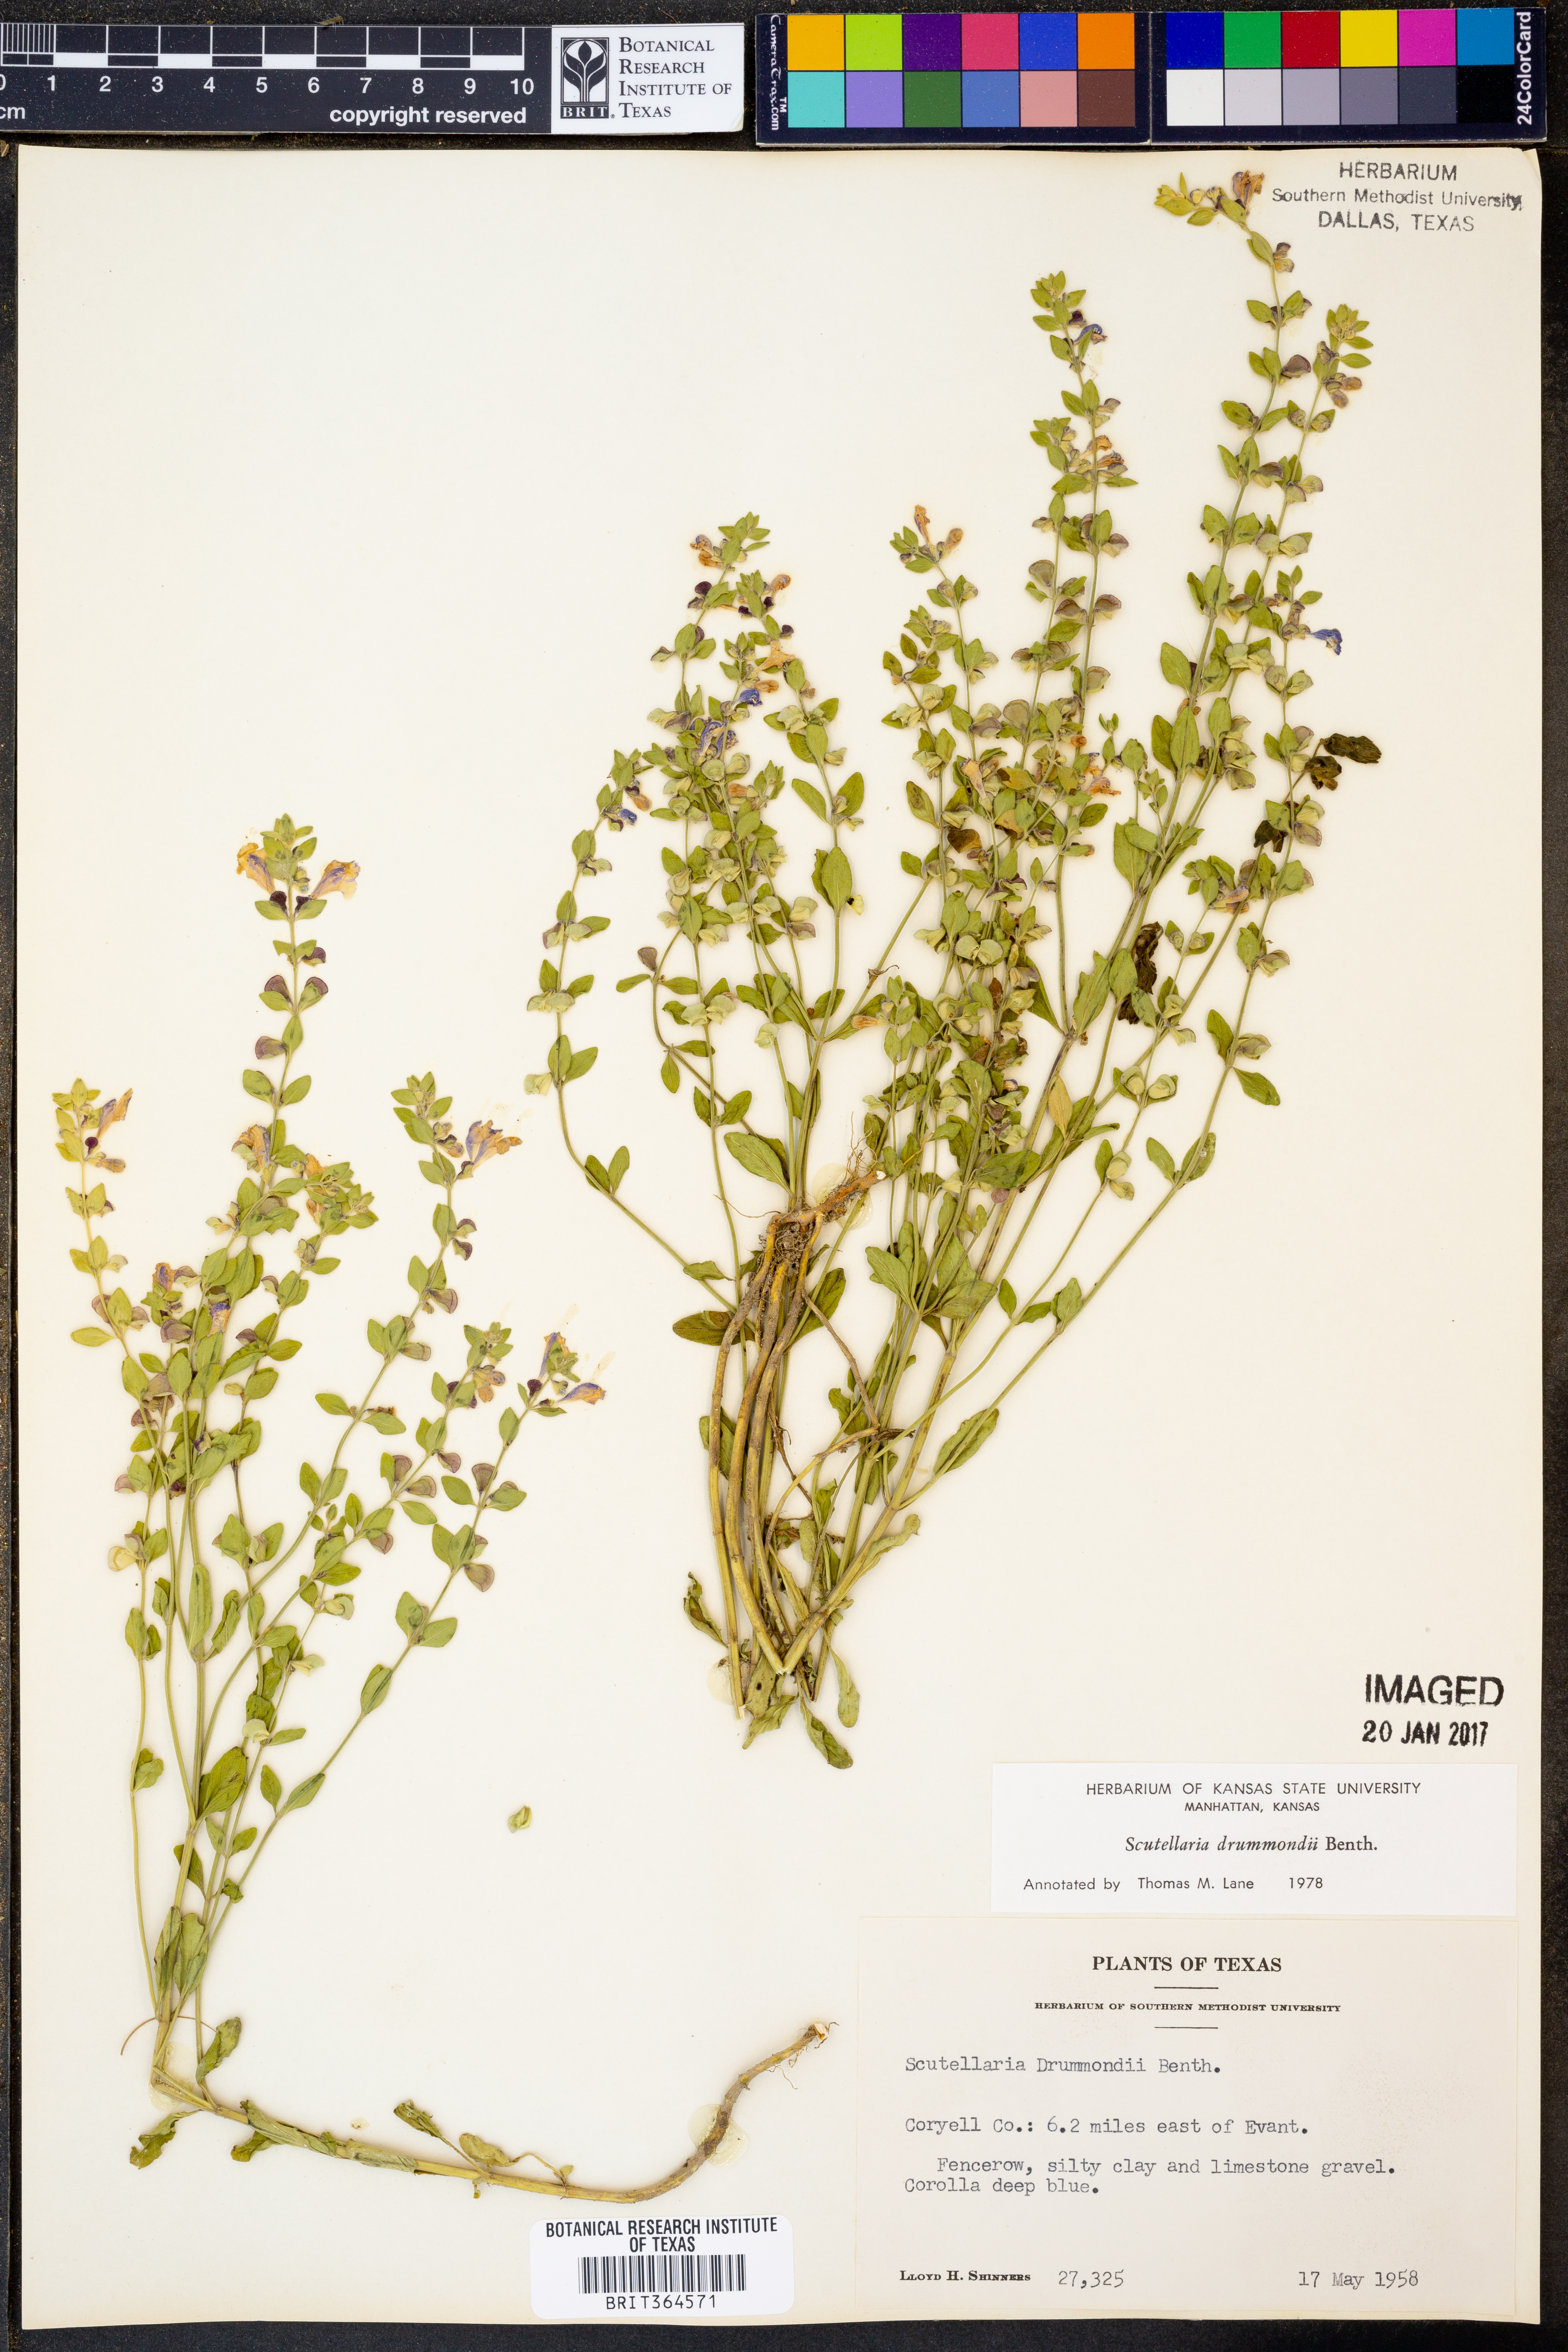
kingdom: Plantae
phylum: Tracheophyta
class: Magnoliopsida
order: Lamiales
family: Lamiaceae
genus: Scutellaria
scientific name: Scutellaria drummondii
